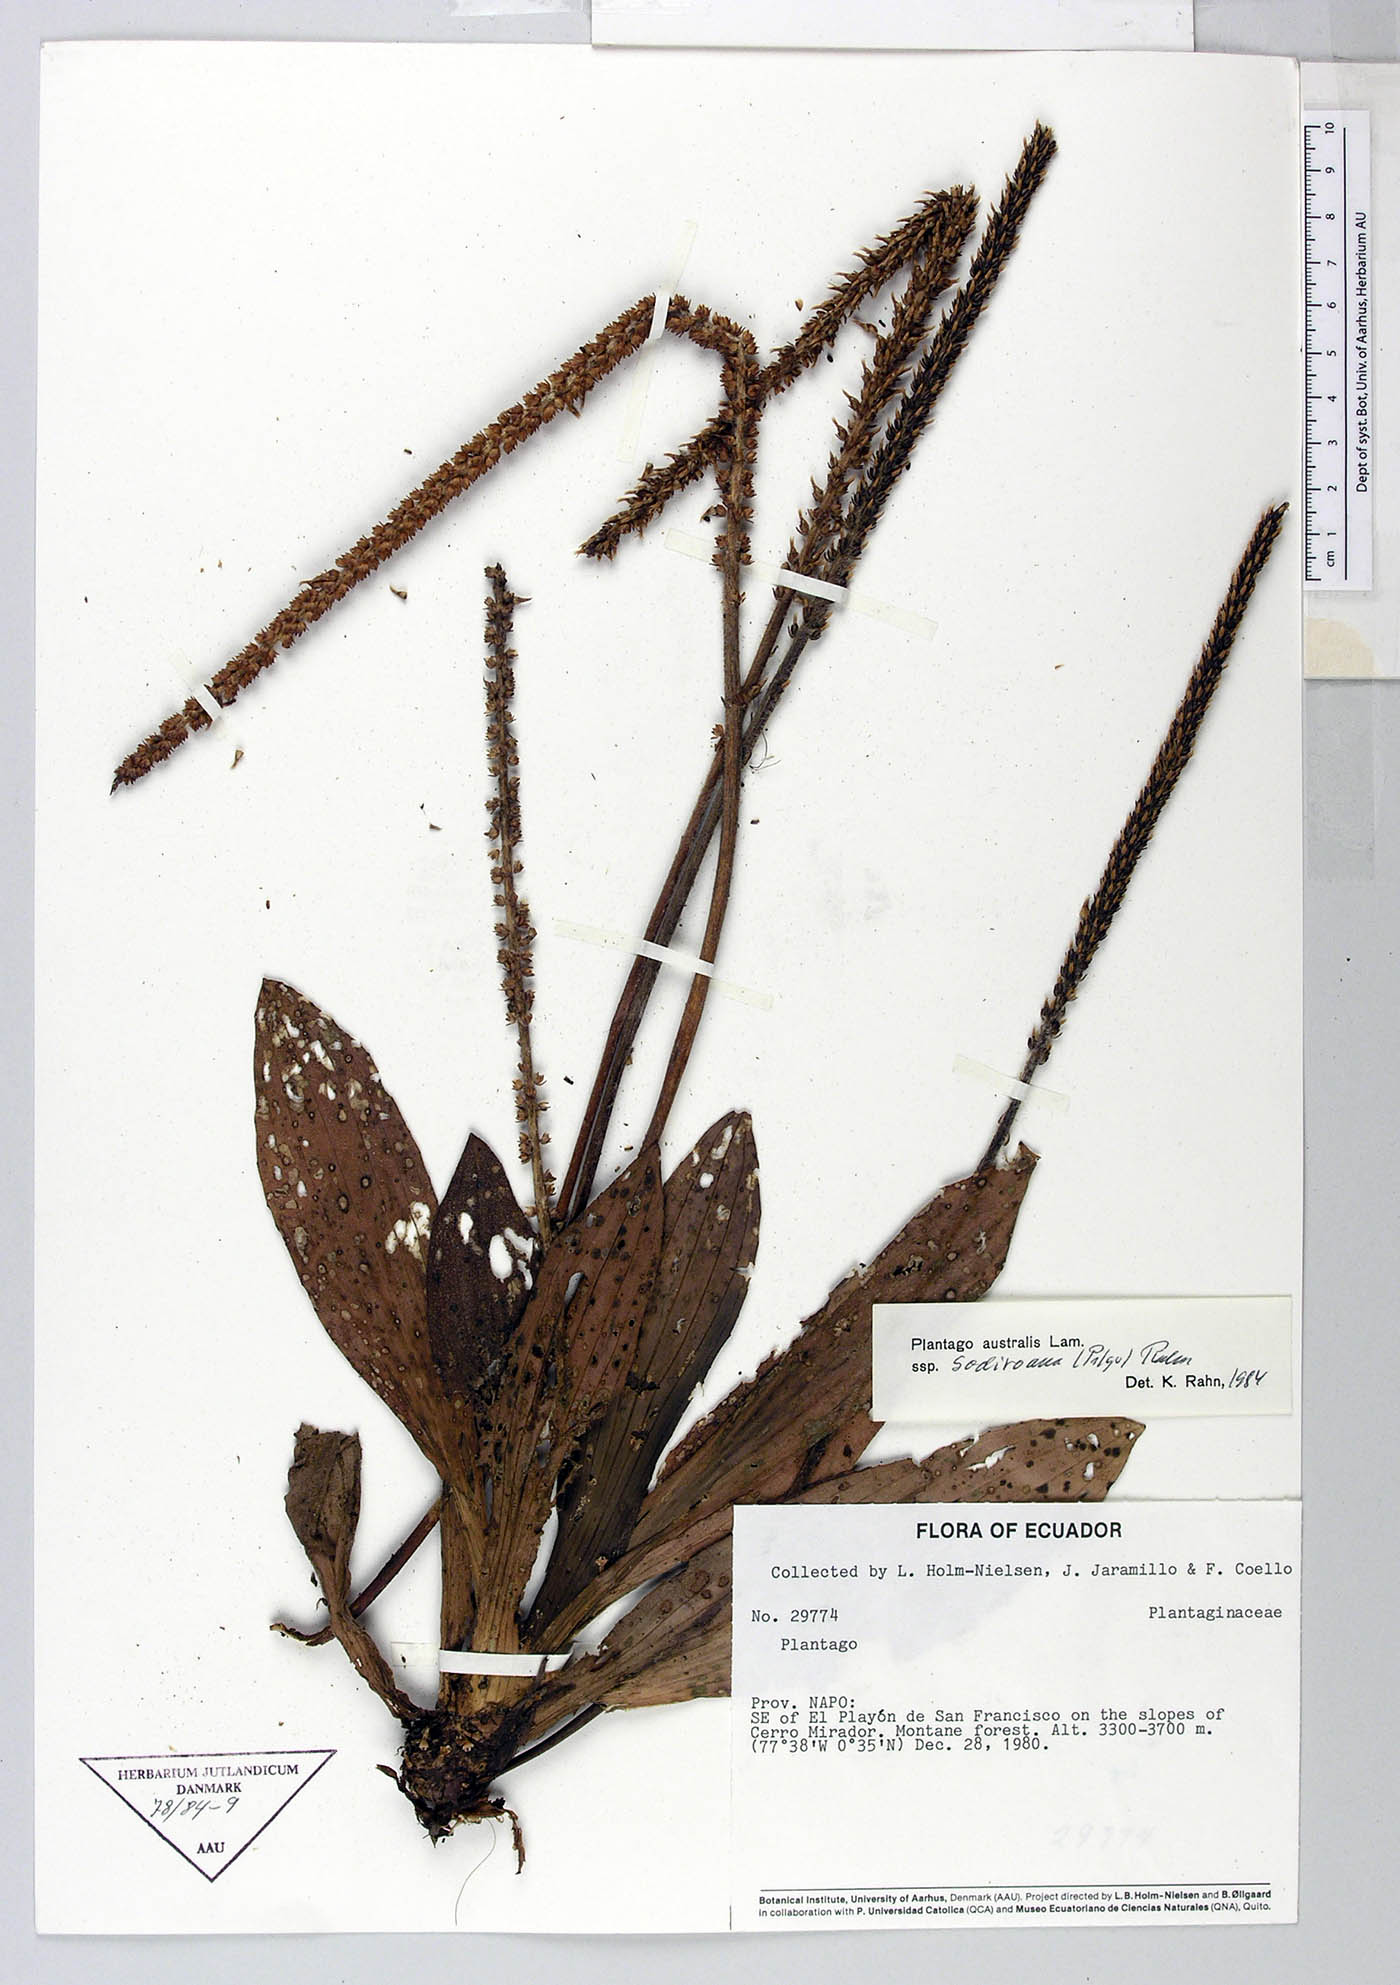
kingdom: Plantae
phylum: Tracheophyta
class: Magnoliopsida
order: Lamiales
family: Plantaginaceae
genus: Plantago
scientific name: Plantago australis
